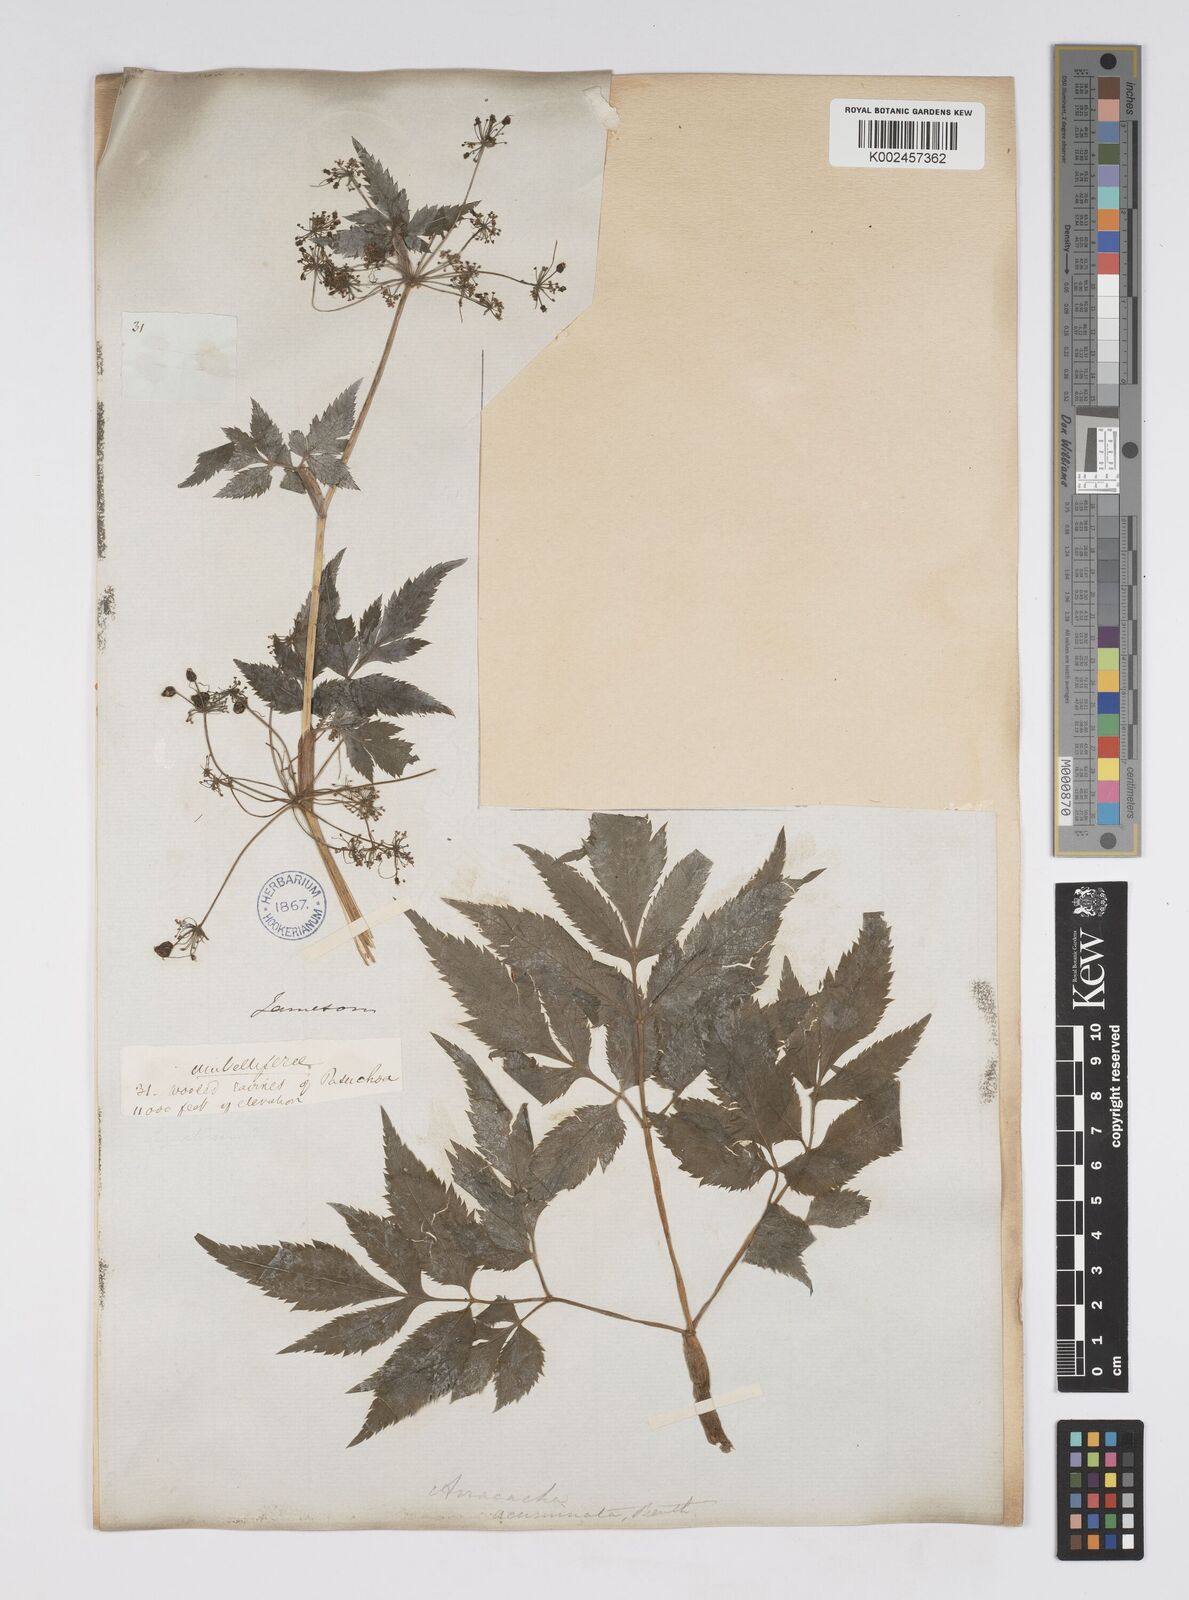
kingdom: Plantae
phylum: Tracheophyta
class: Magnoliopsida
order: Apiales
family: Apiaceae
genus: Neonelsonia
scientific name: Neonelsonia acuminata
